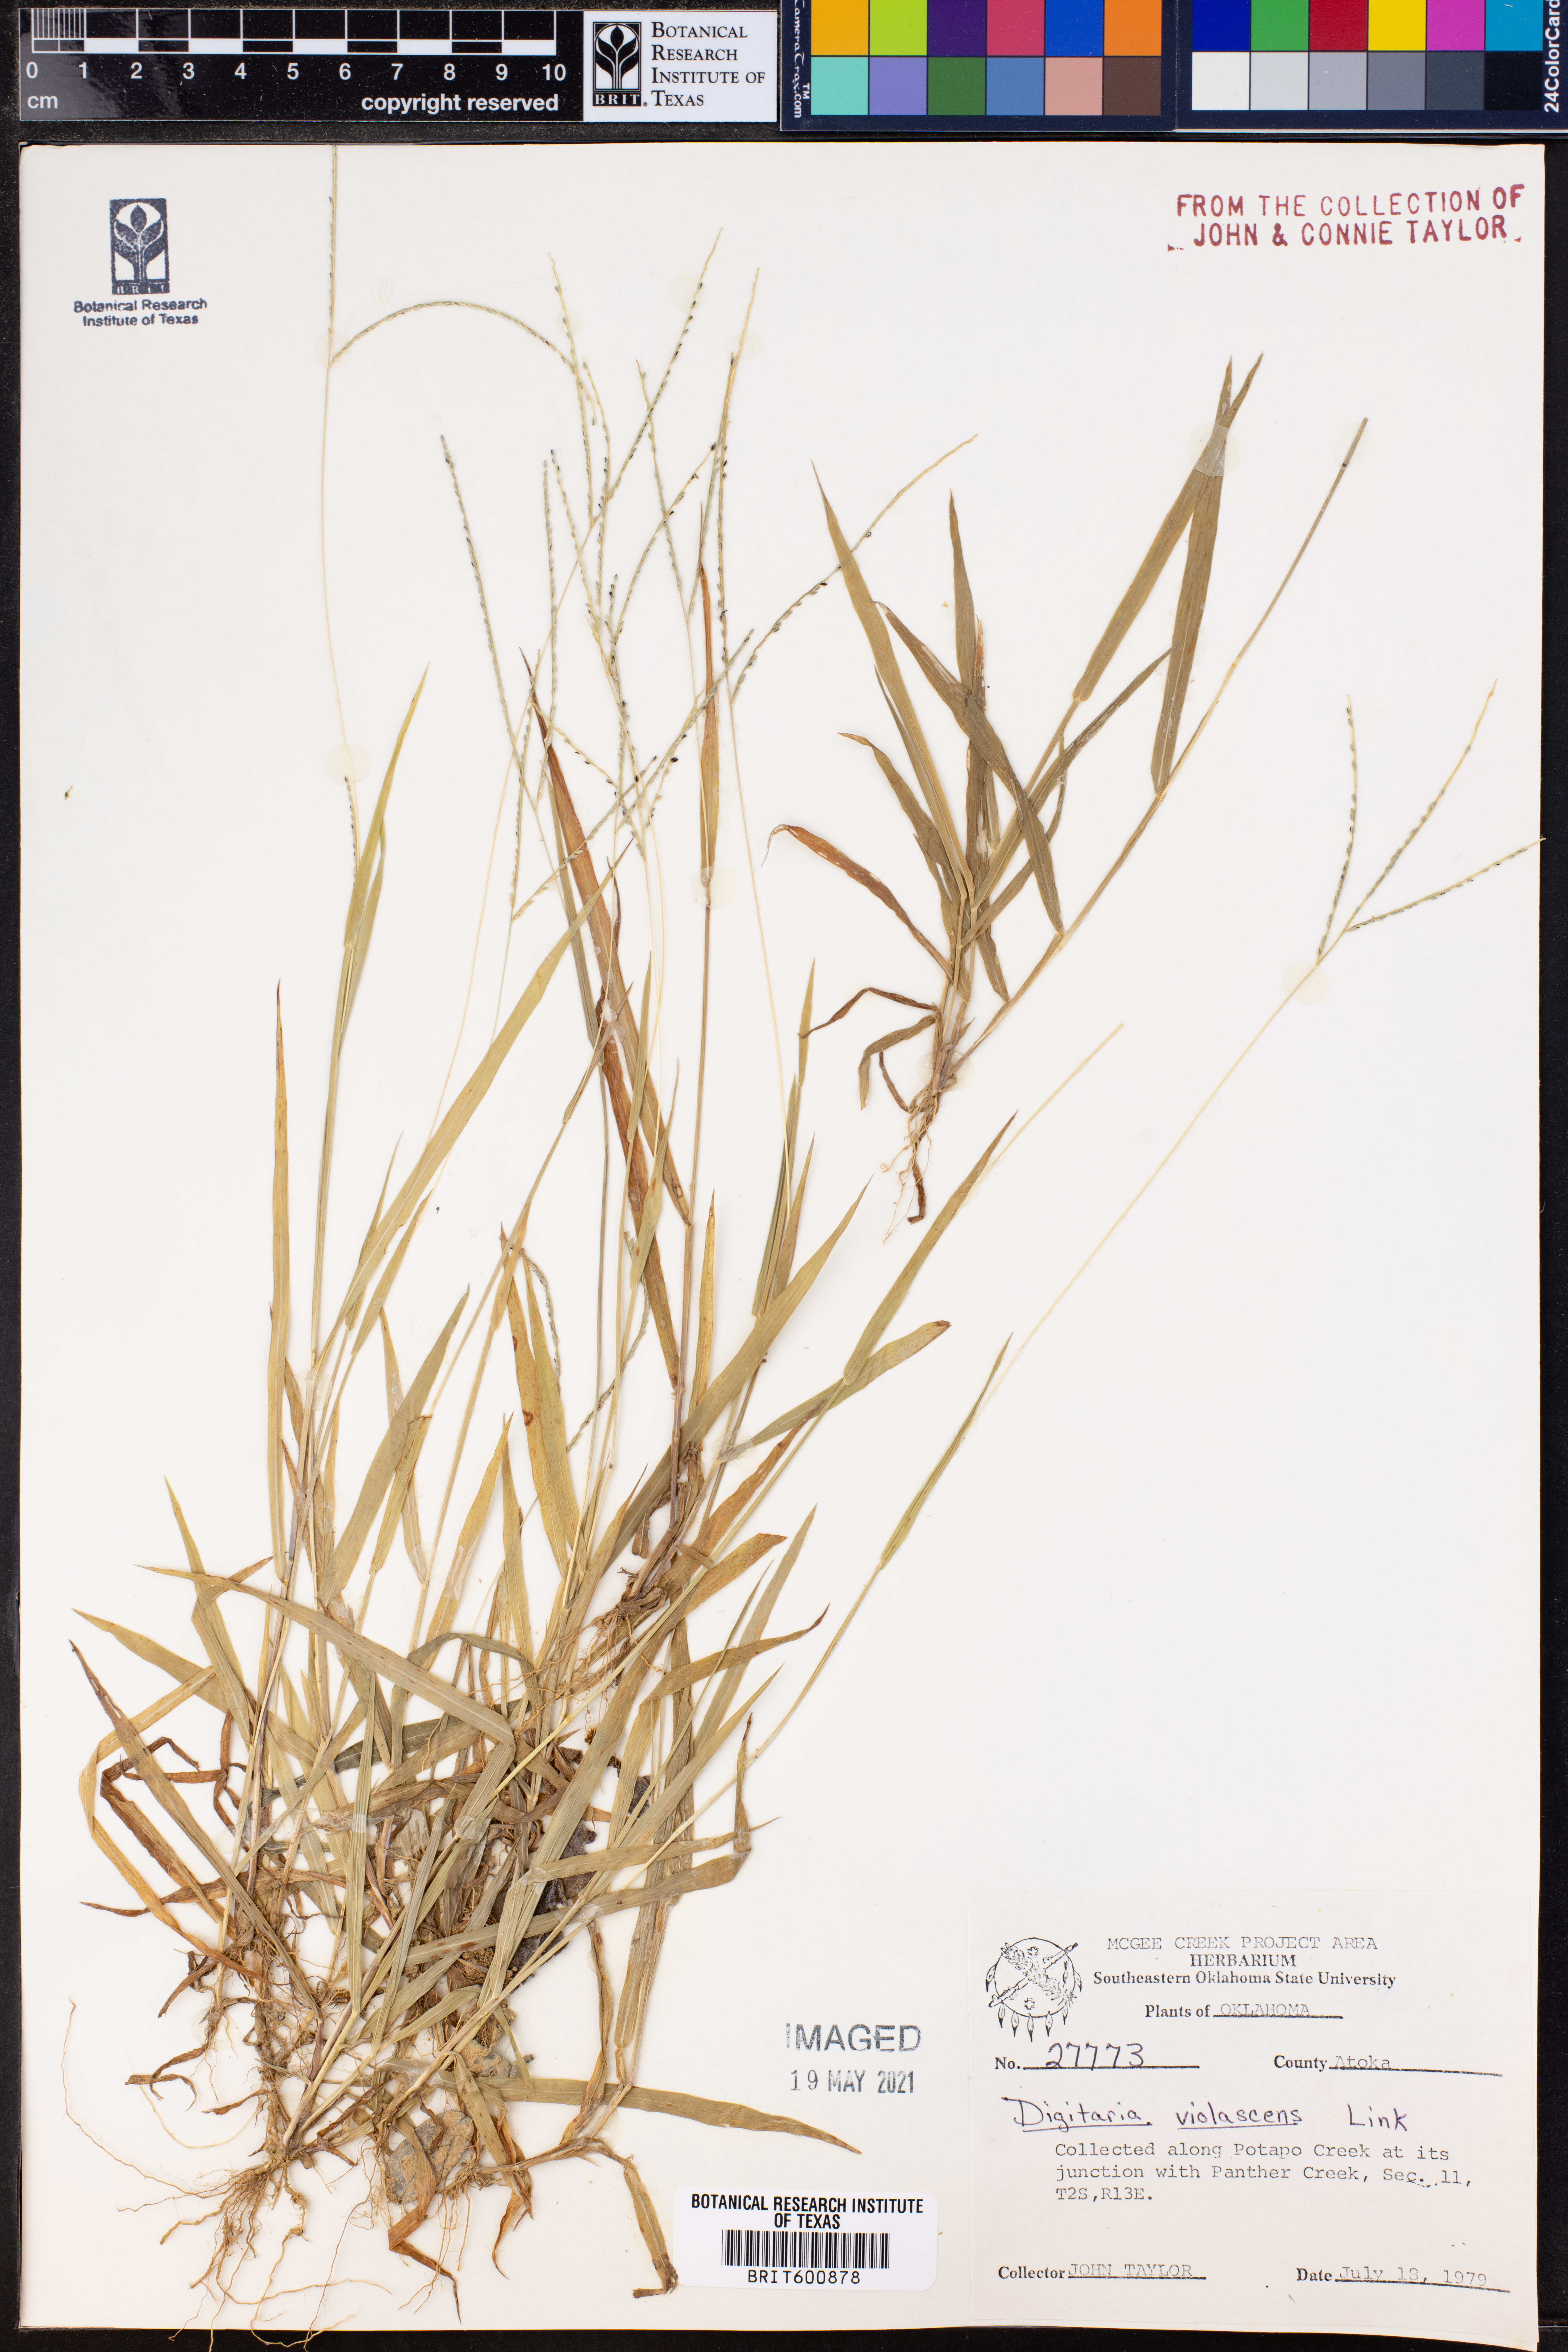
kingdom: Plantae
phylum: Tracheophyta
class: Liliopsida
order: Poales
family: Poaceae
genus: Digitaria
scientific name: Digitaria violascens
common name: Violet crabgrass
